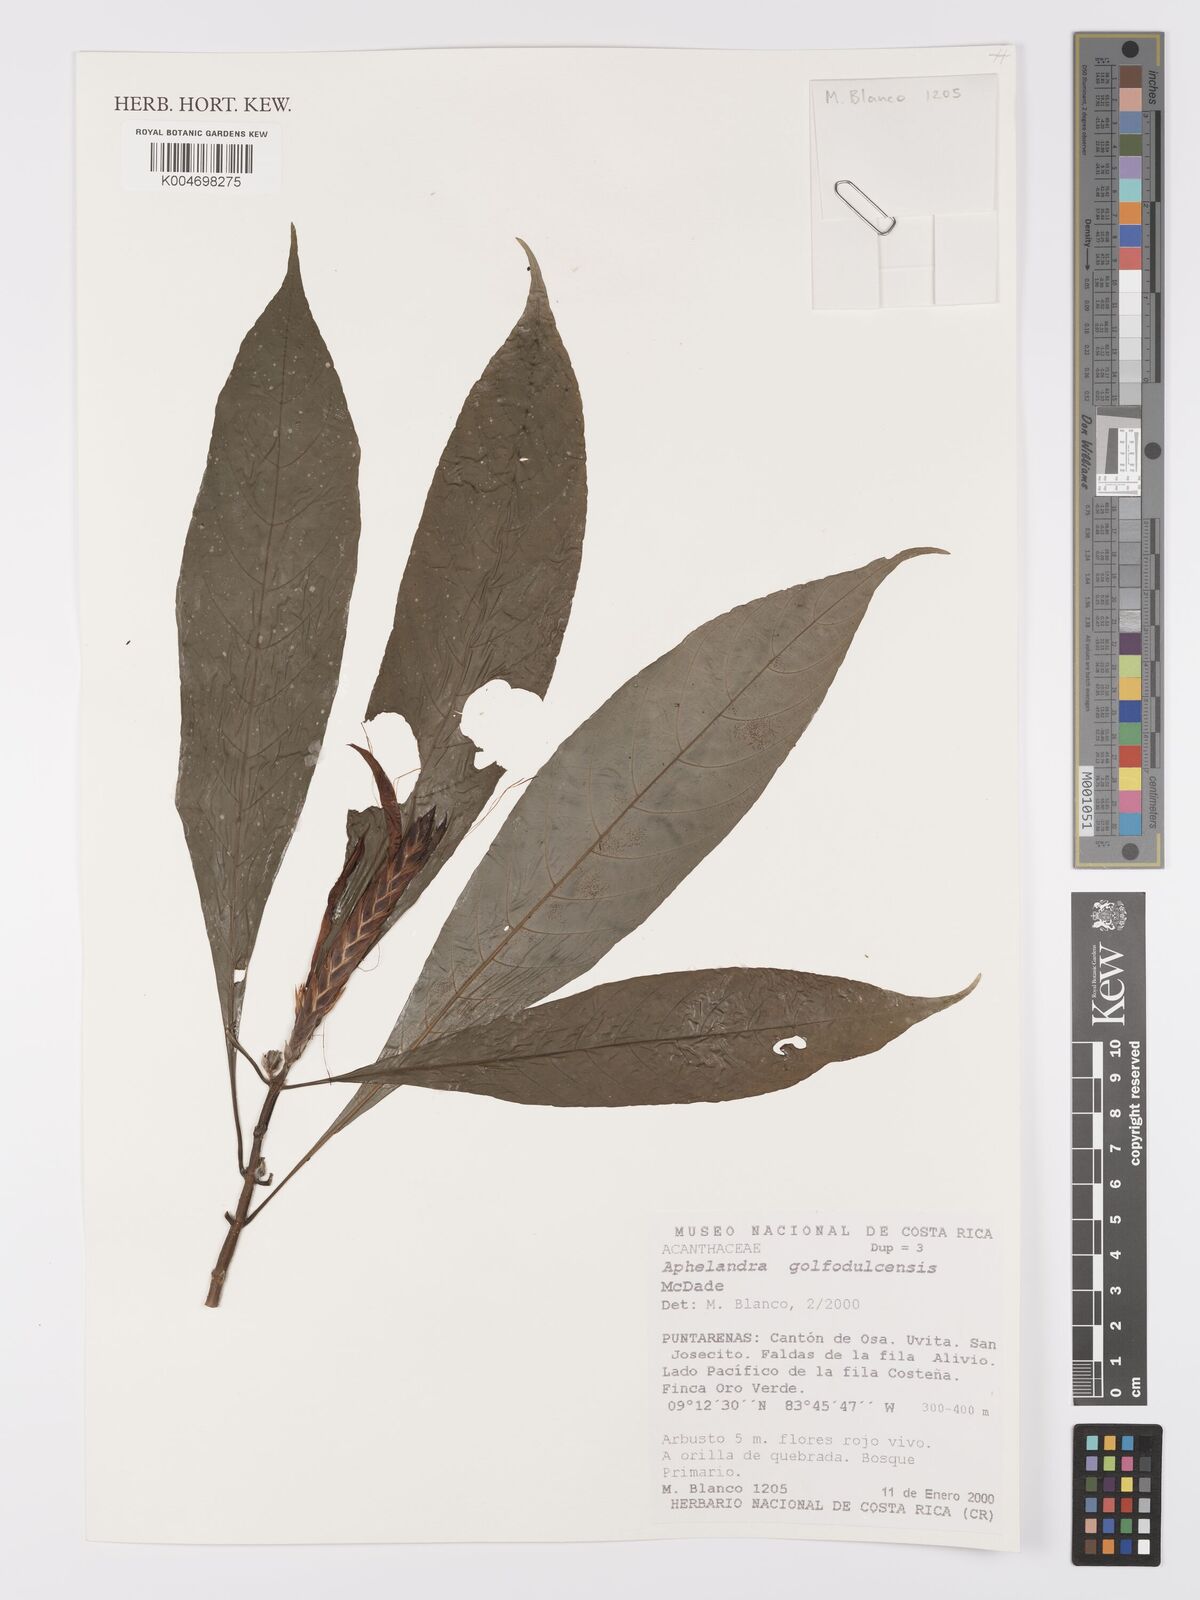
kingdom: Plantae
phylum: Tracheophyta
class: Magnoliopsida
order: Lamiales
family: Acanthaceae
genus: Aphelandra
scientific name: Aphelandra golfodulcensis
